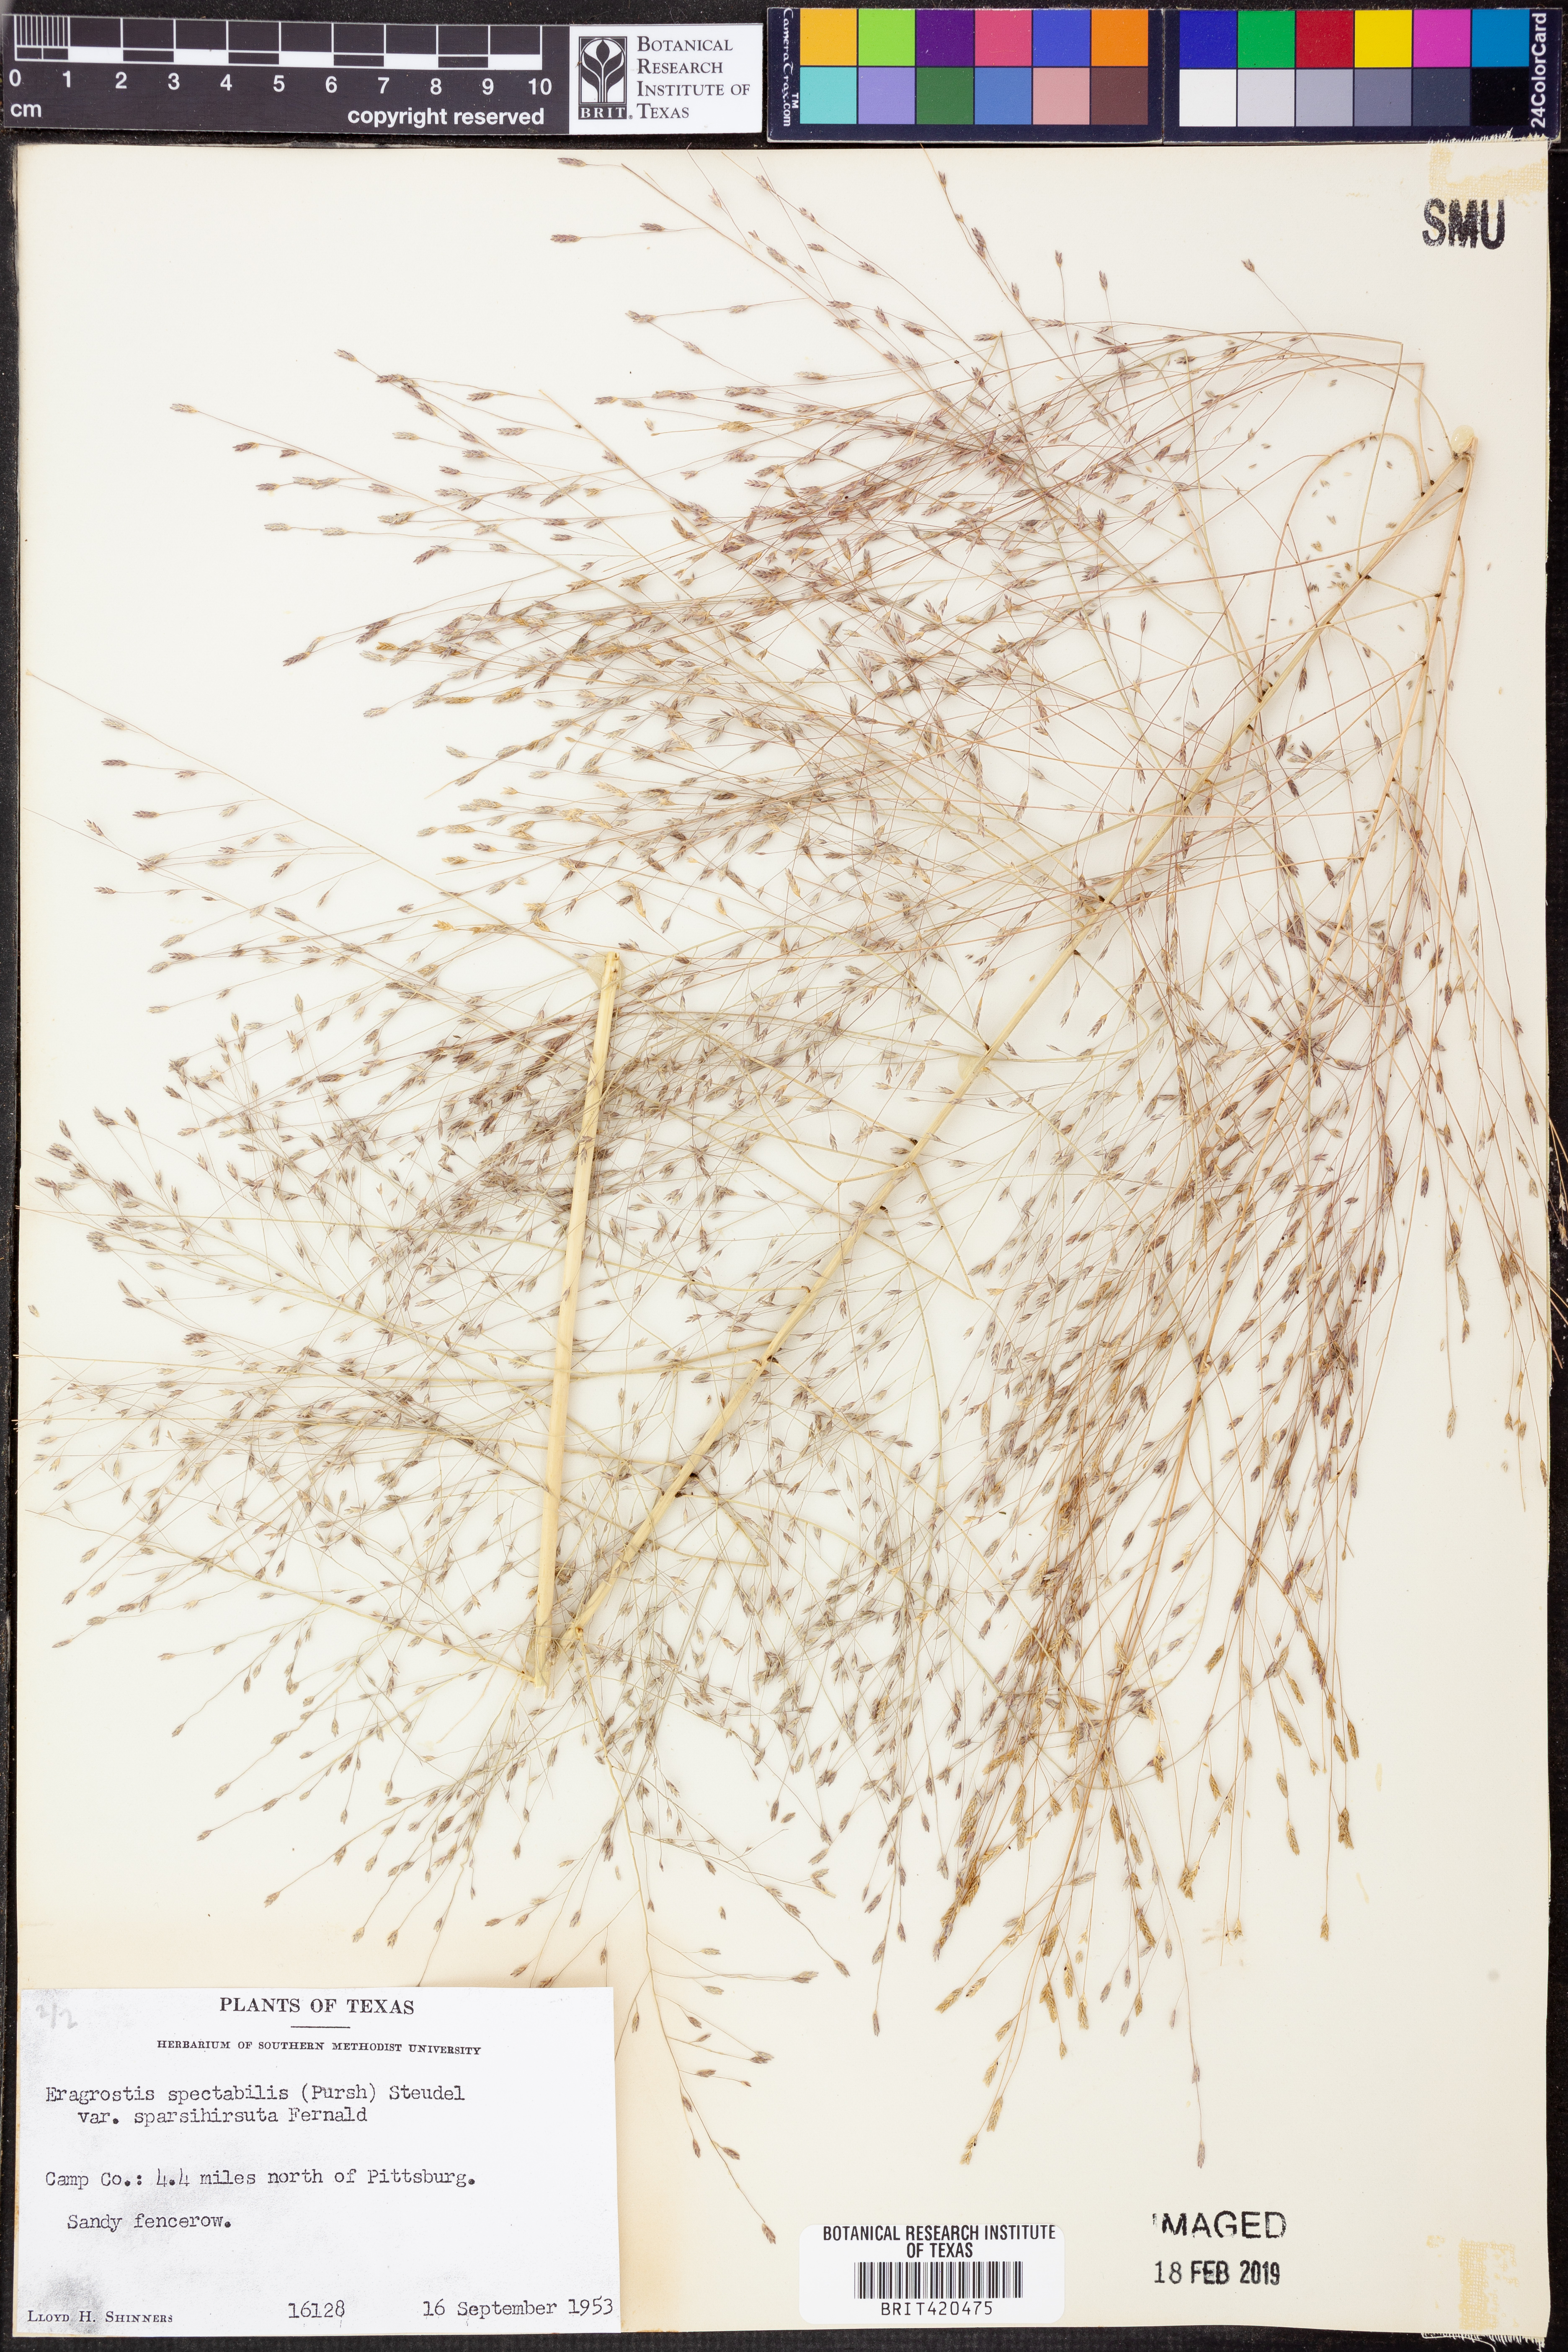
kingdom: Plantae
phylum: Tracheophyta
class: Liliopsida
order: Poales
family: Poaceae
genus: Eragrostis
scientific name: Eragrostis spectabilis
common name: Petticoat-climber
